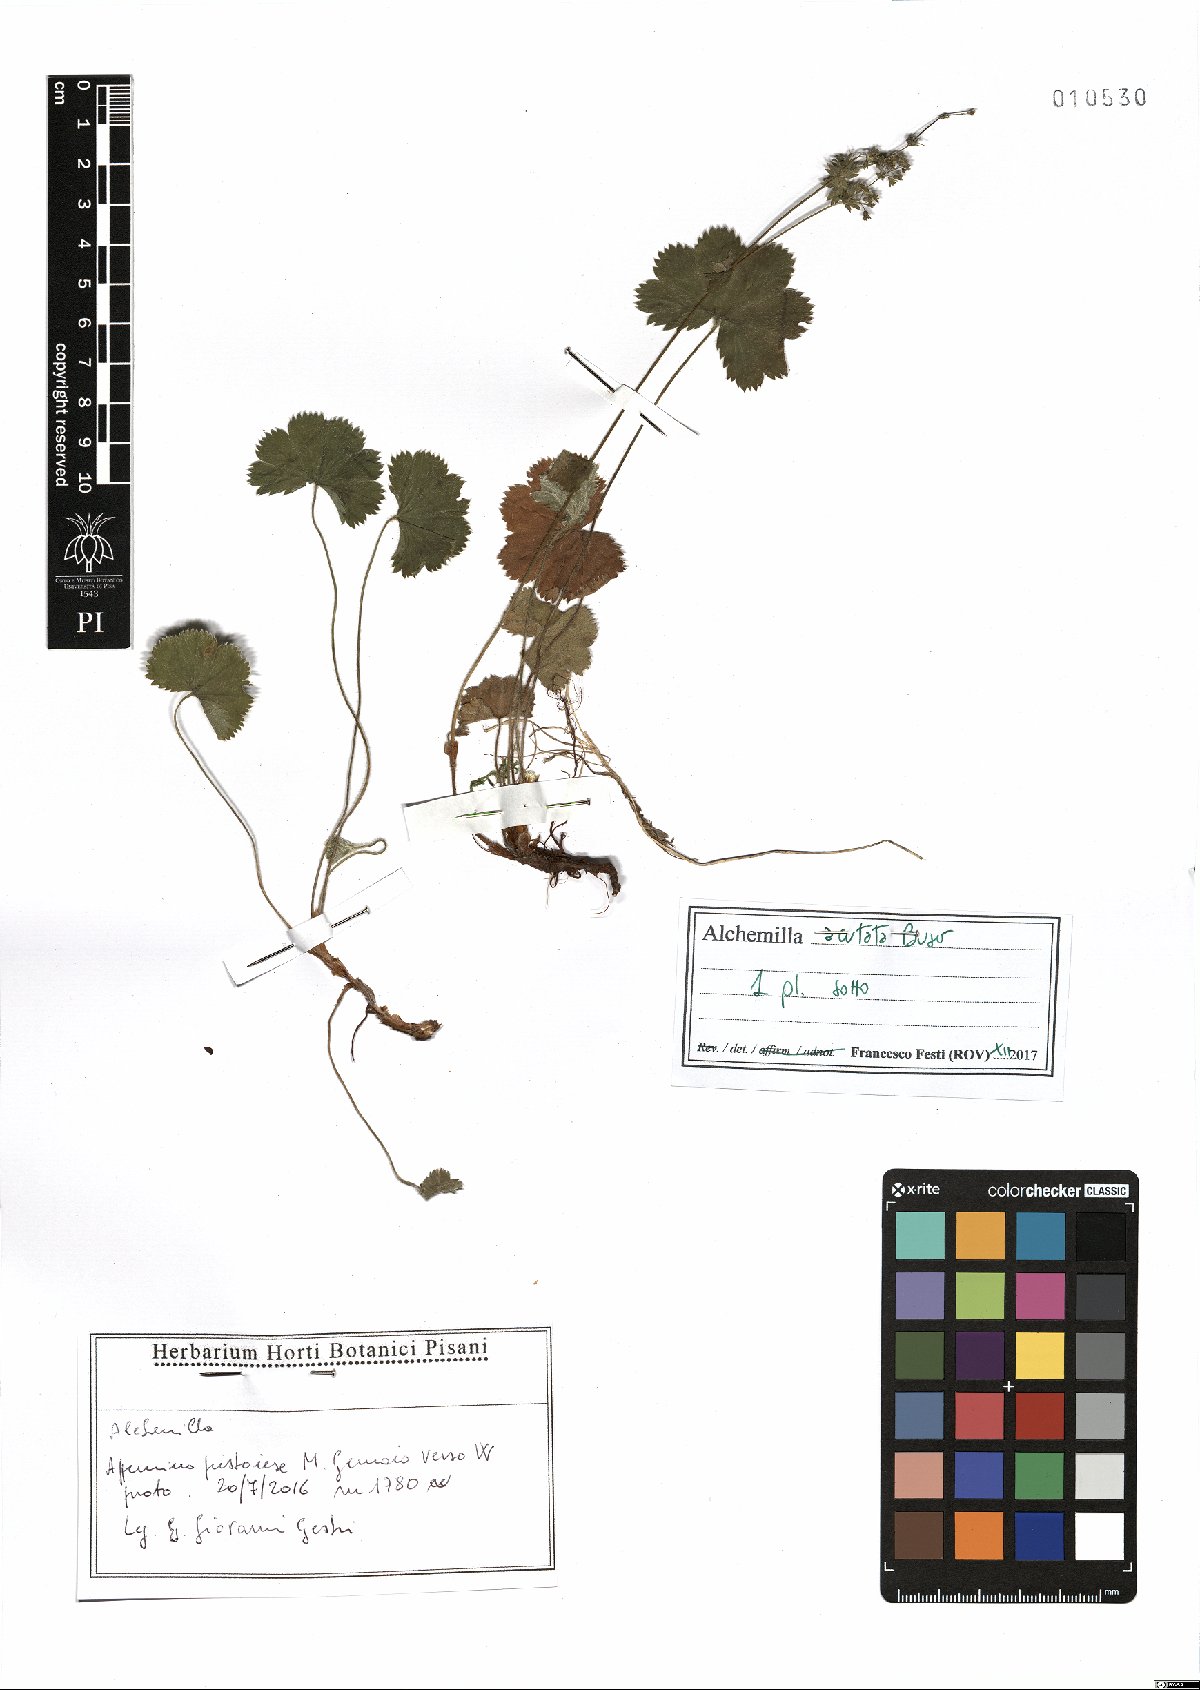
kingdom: Plantae
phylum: Tracheophyta
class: Magnoliopsida
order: Rosales
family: Rosaceae
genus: Alchemilla
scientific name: Alchemilla acutata
